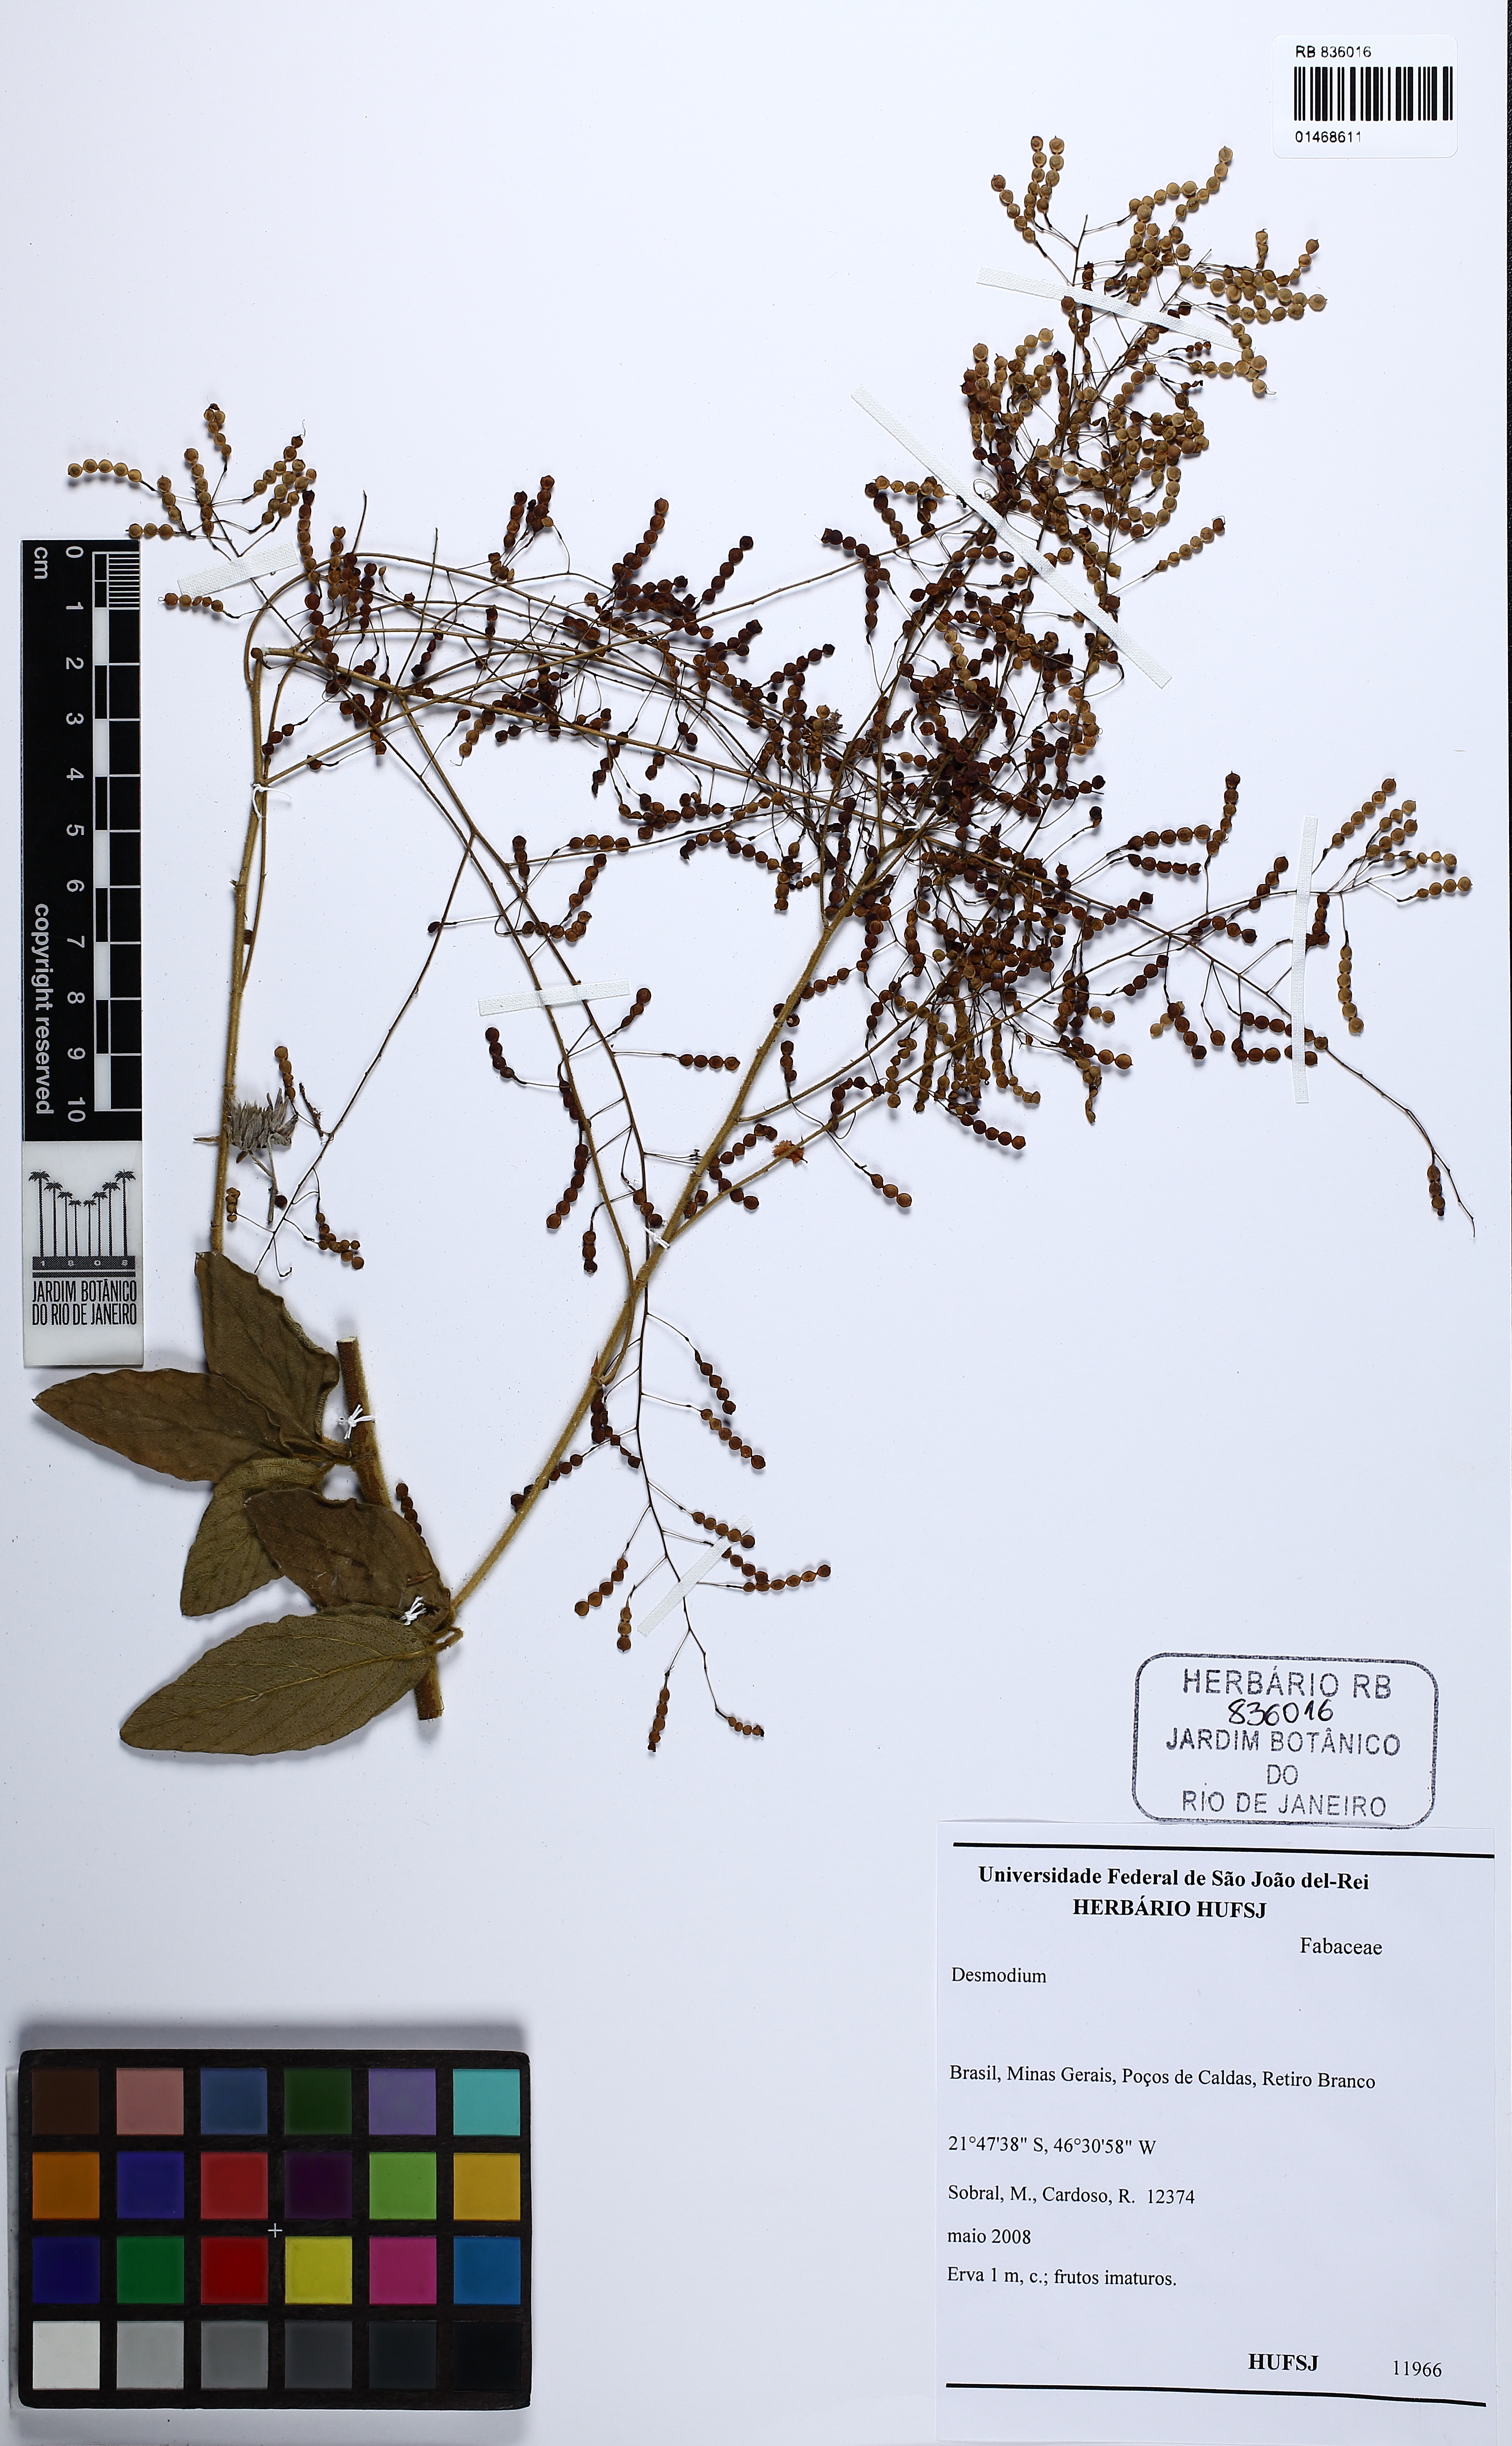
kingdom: Plantae
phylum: Tracheophyta
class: Magnoliopsida
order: Fabales
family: Fabaceae
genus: Desmodium
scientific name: Desmodium subsecundum
